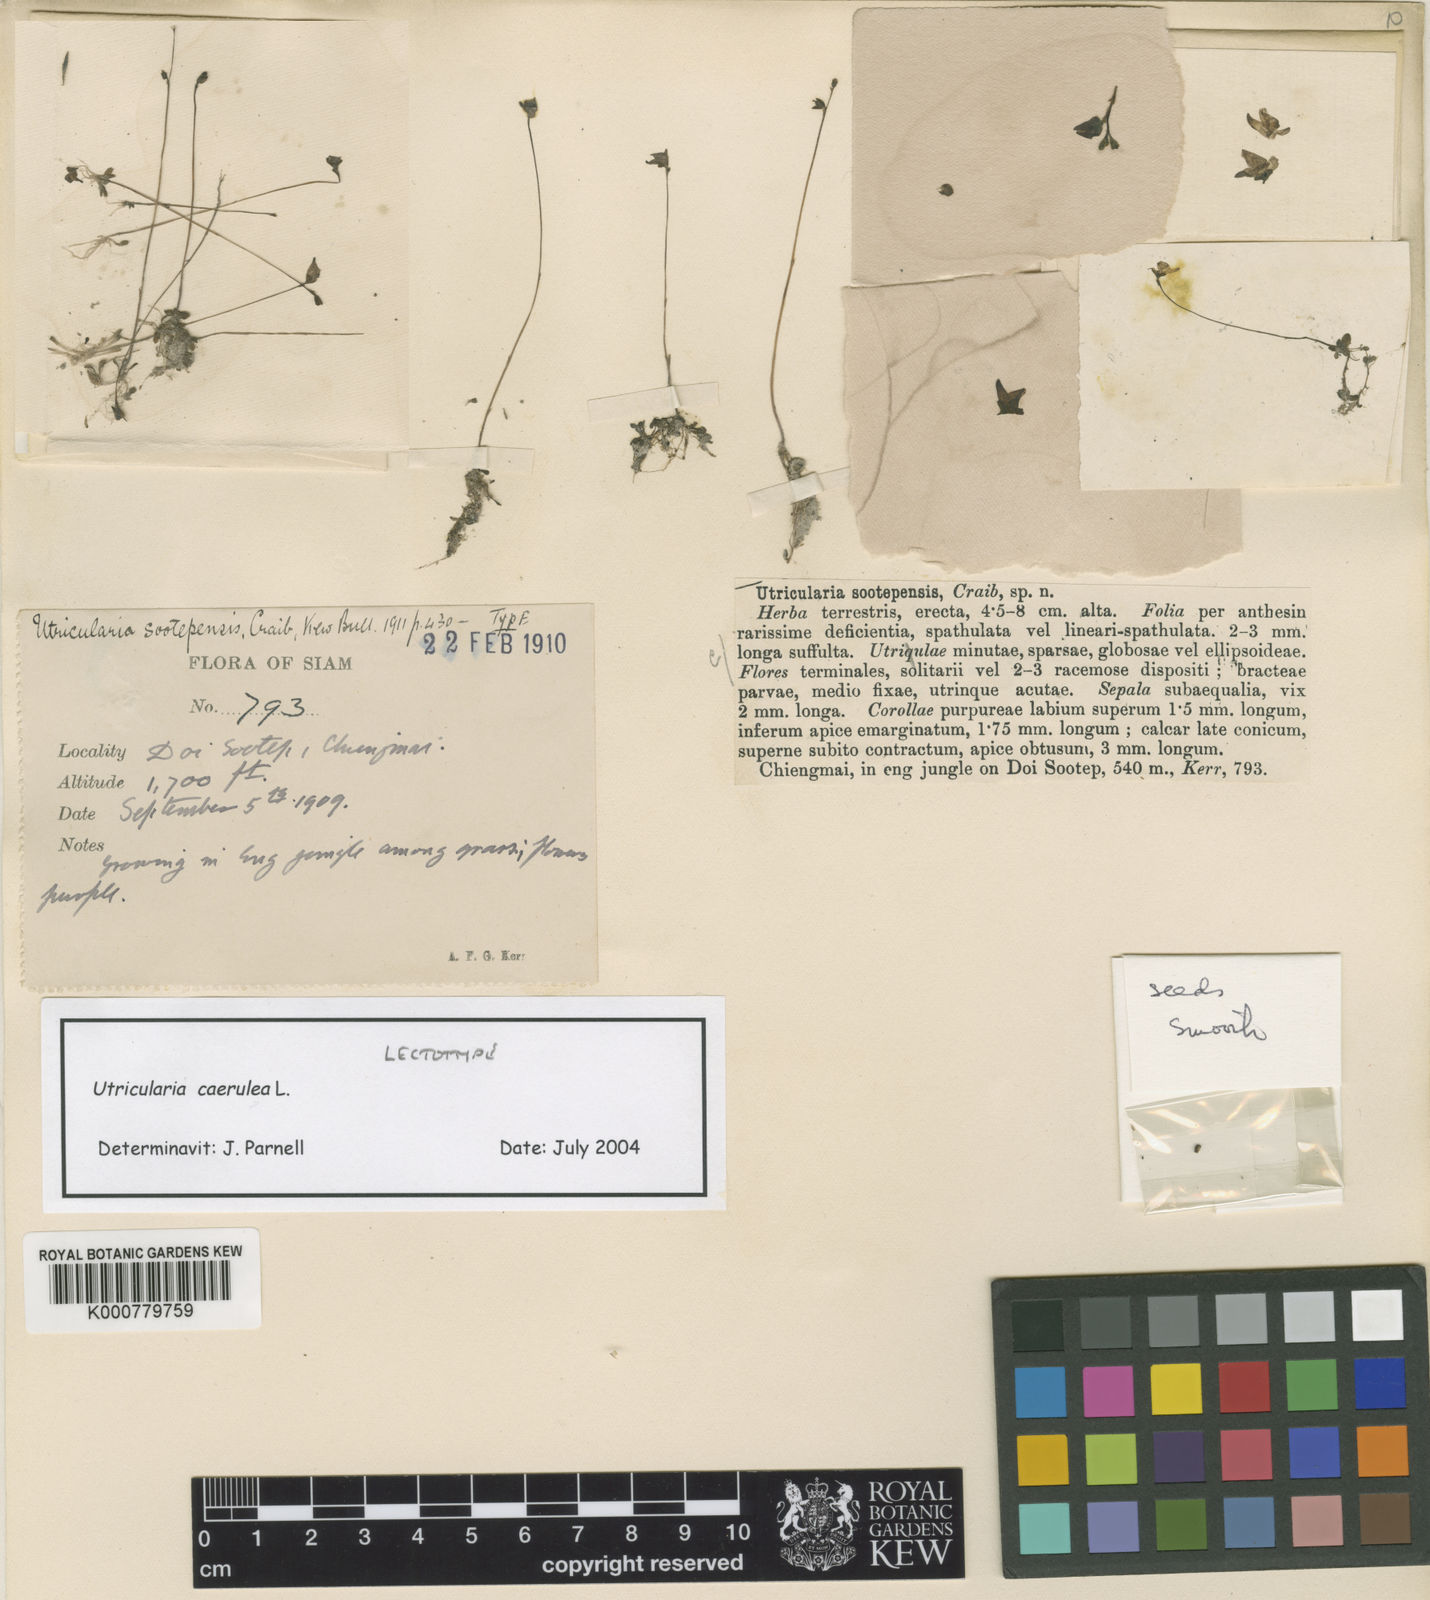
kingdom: Plantae
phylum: Tracheophyta
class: Magnoliopsida
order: Lamiales
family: Lentibulariaceae
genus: Utricularia
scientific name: Utricularia caerulea
